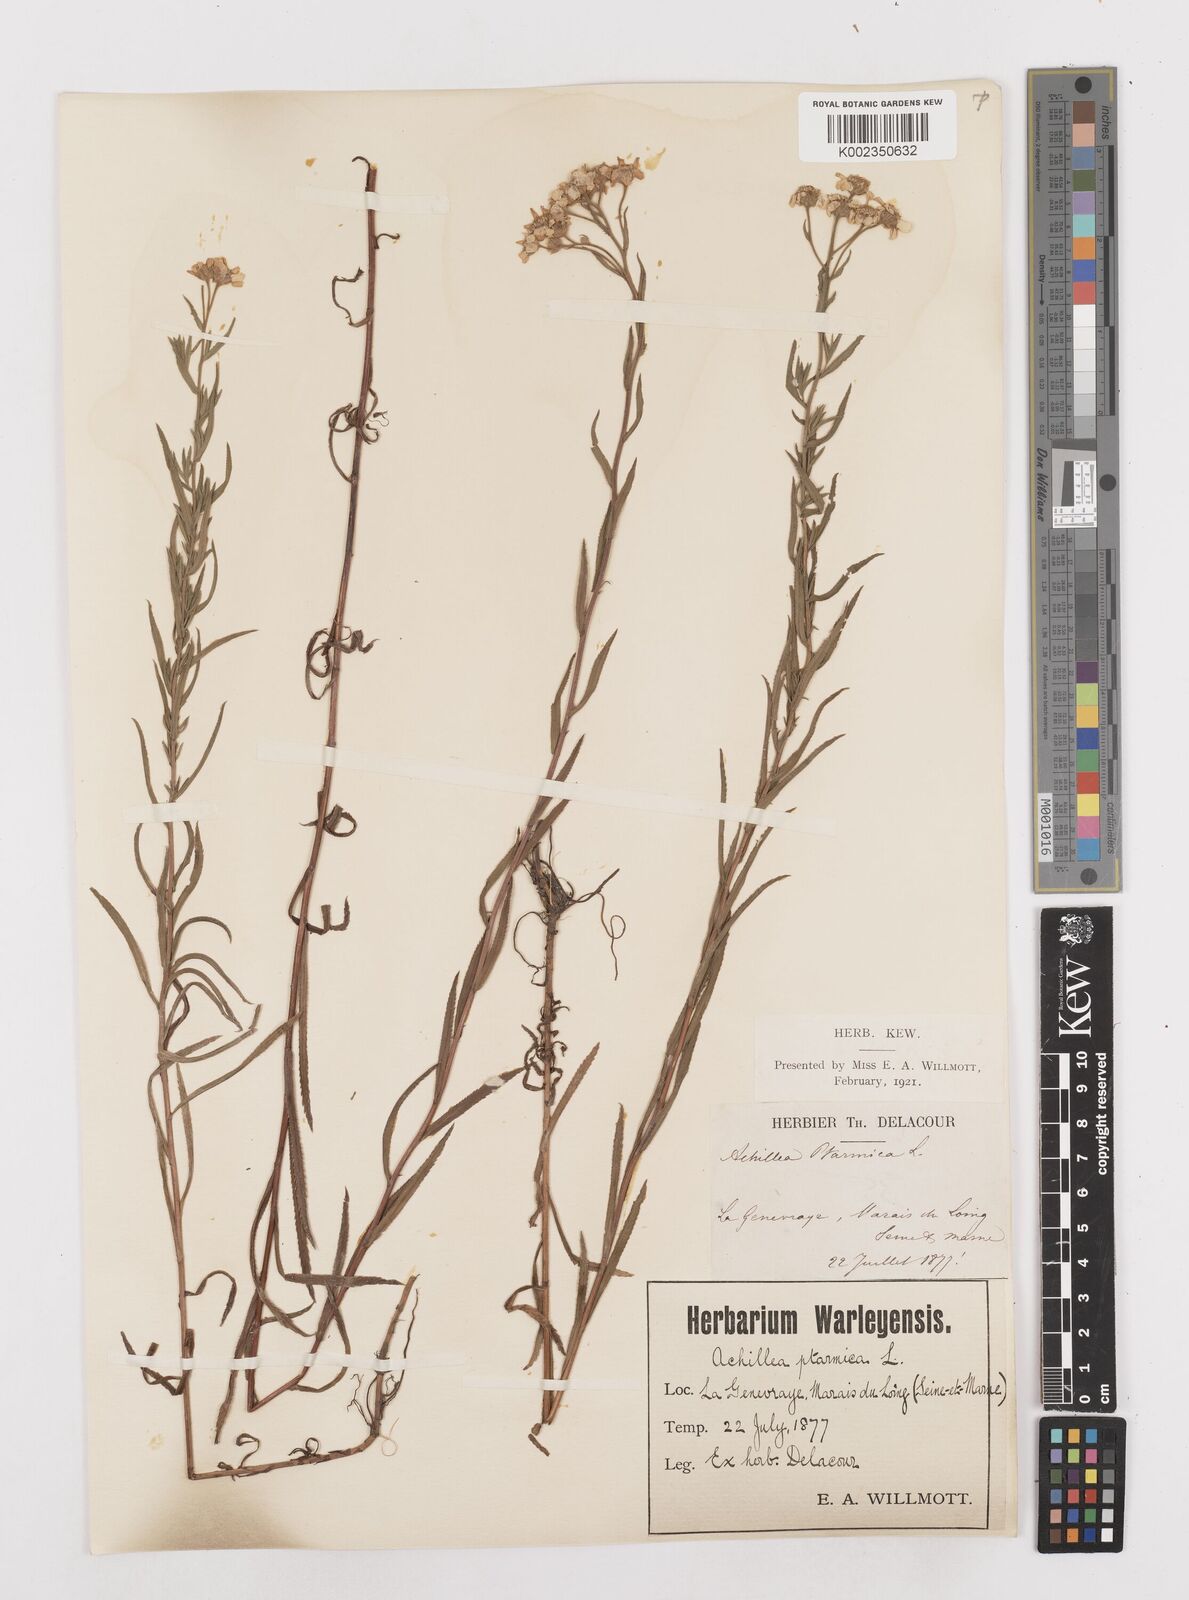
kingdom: Plantae
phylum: Tracheophyta
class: Magnoliopsida
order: Asterales
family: Asteraceae
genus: Achillea
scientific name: Achillea ptarmica
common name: Sneezeweed
